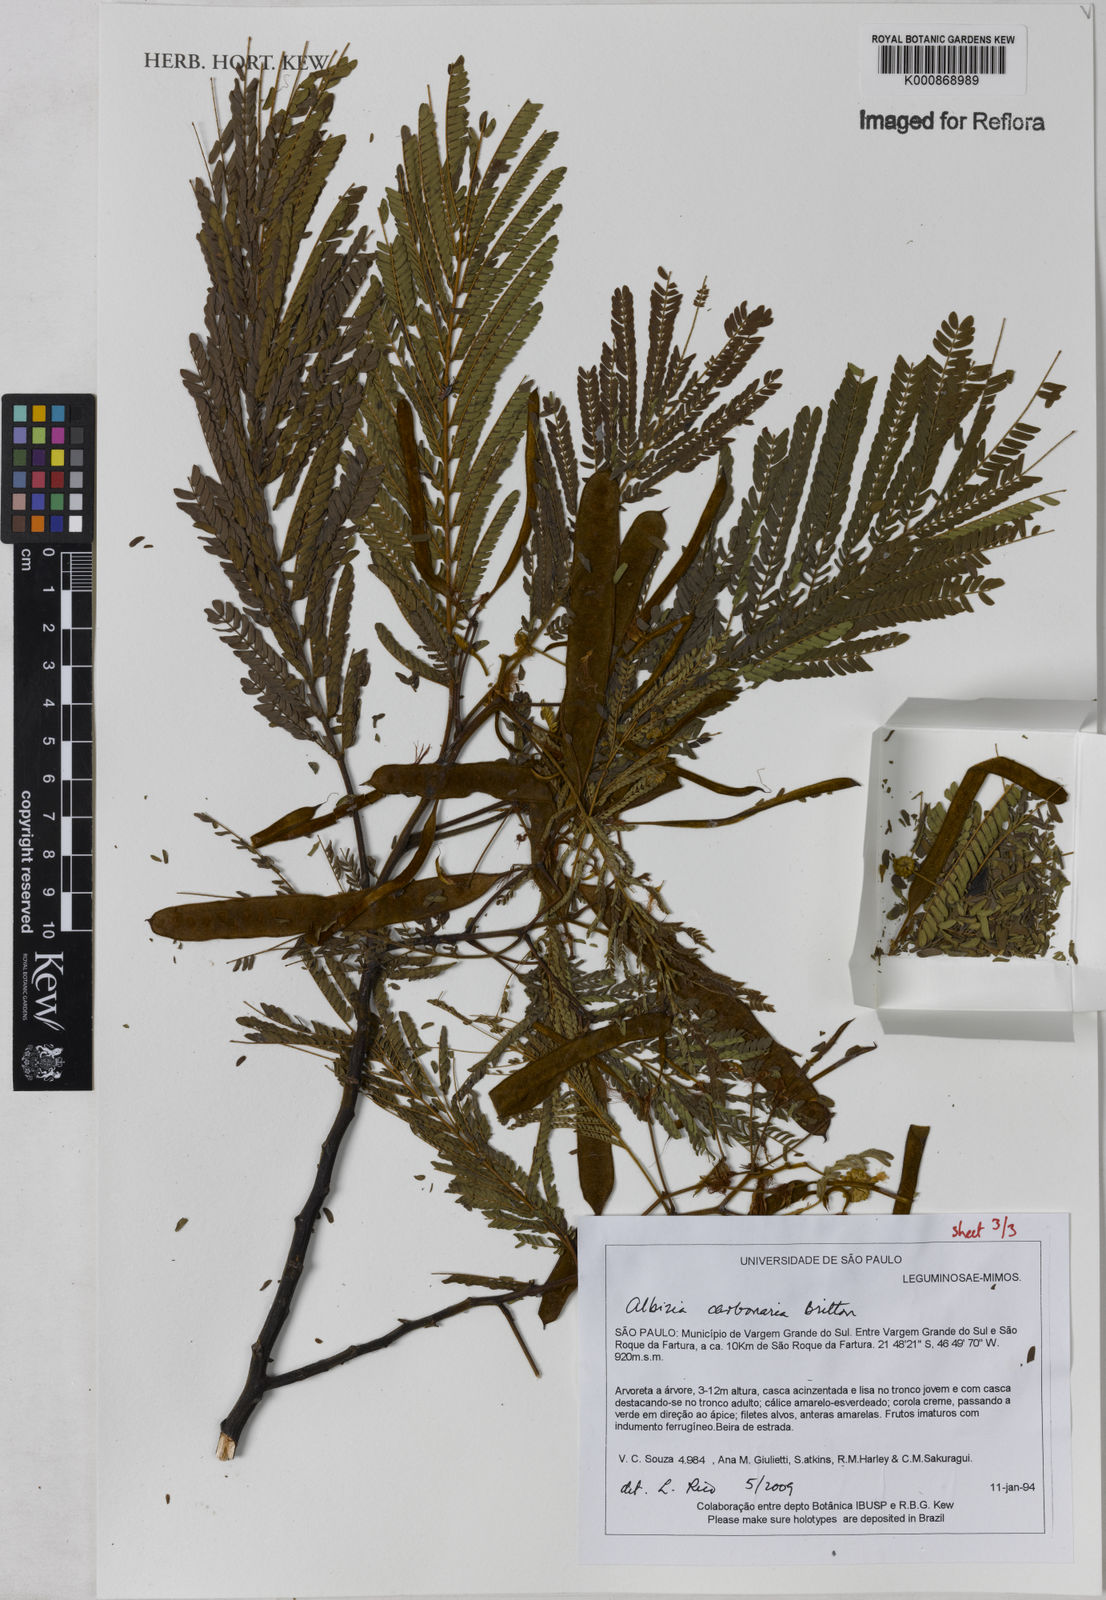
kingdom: Plantae
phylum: Tracheophyta
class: Magnoliopsida
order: Fabales
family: Fabaceae
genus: Albizia
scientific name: Albizia carbonaria
